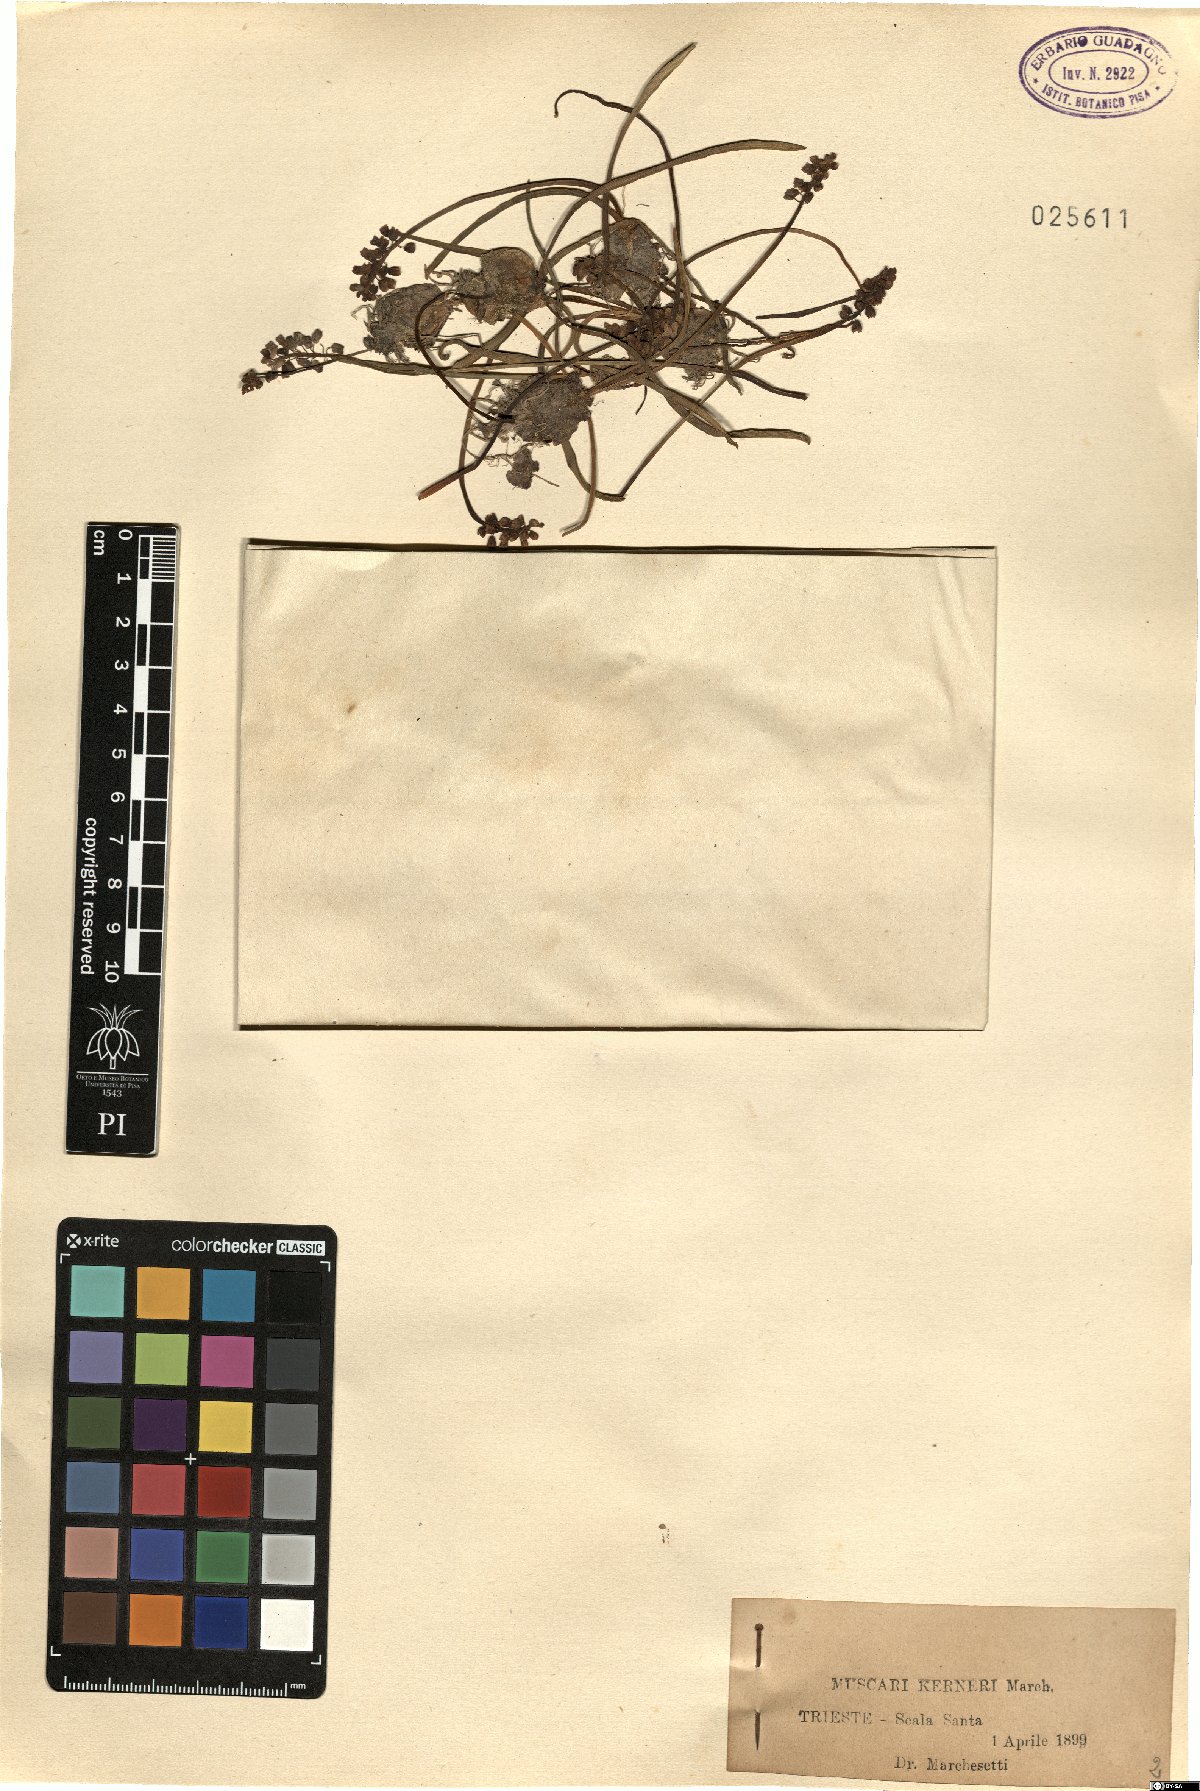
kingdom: Plantae
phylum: Tracheophyta
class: Liliopsida
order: Asparagales
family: Asparagaceae
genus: Muscari
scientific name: Muscari botryoides
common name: Compact grape-hyacinth
